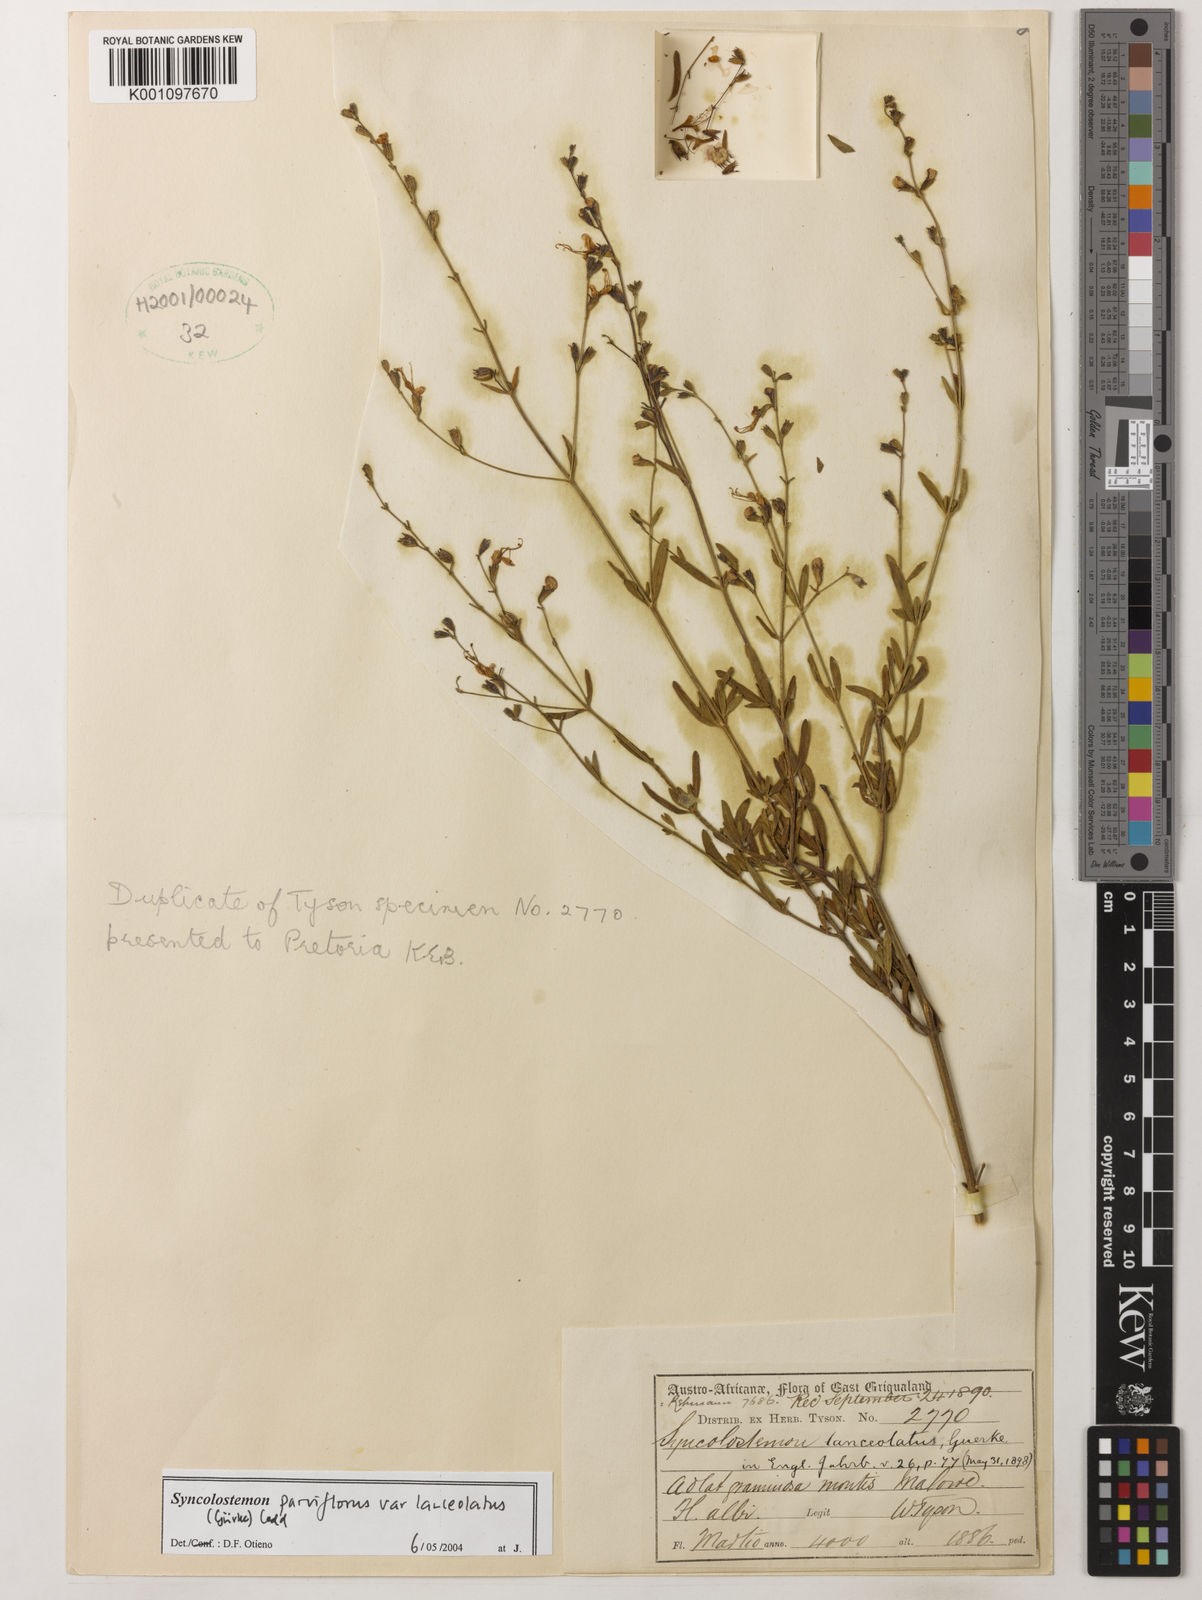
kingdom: Plantae
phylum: Tracheophyta
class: Magnoliopsida
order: Lamiales
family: Lamiaceae
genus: Syncolostemon
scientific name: Syncolostemon parviflorus
